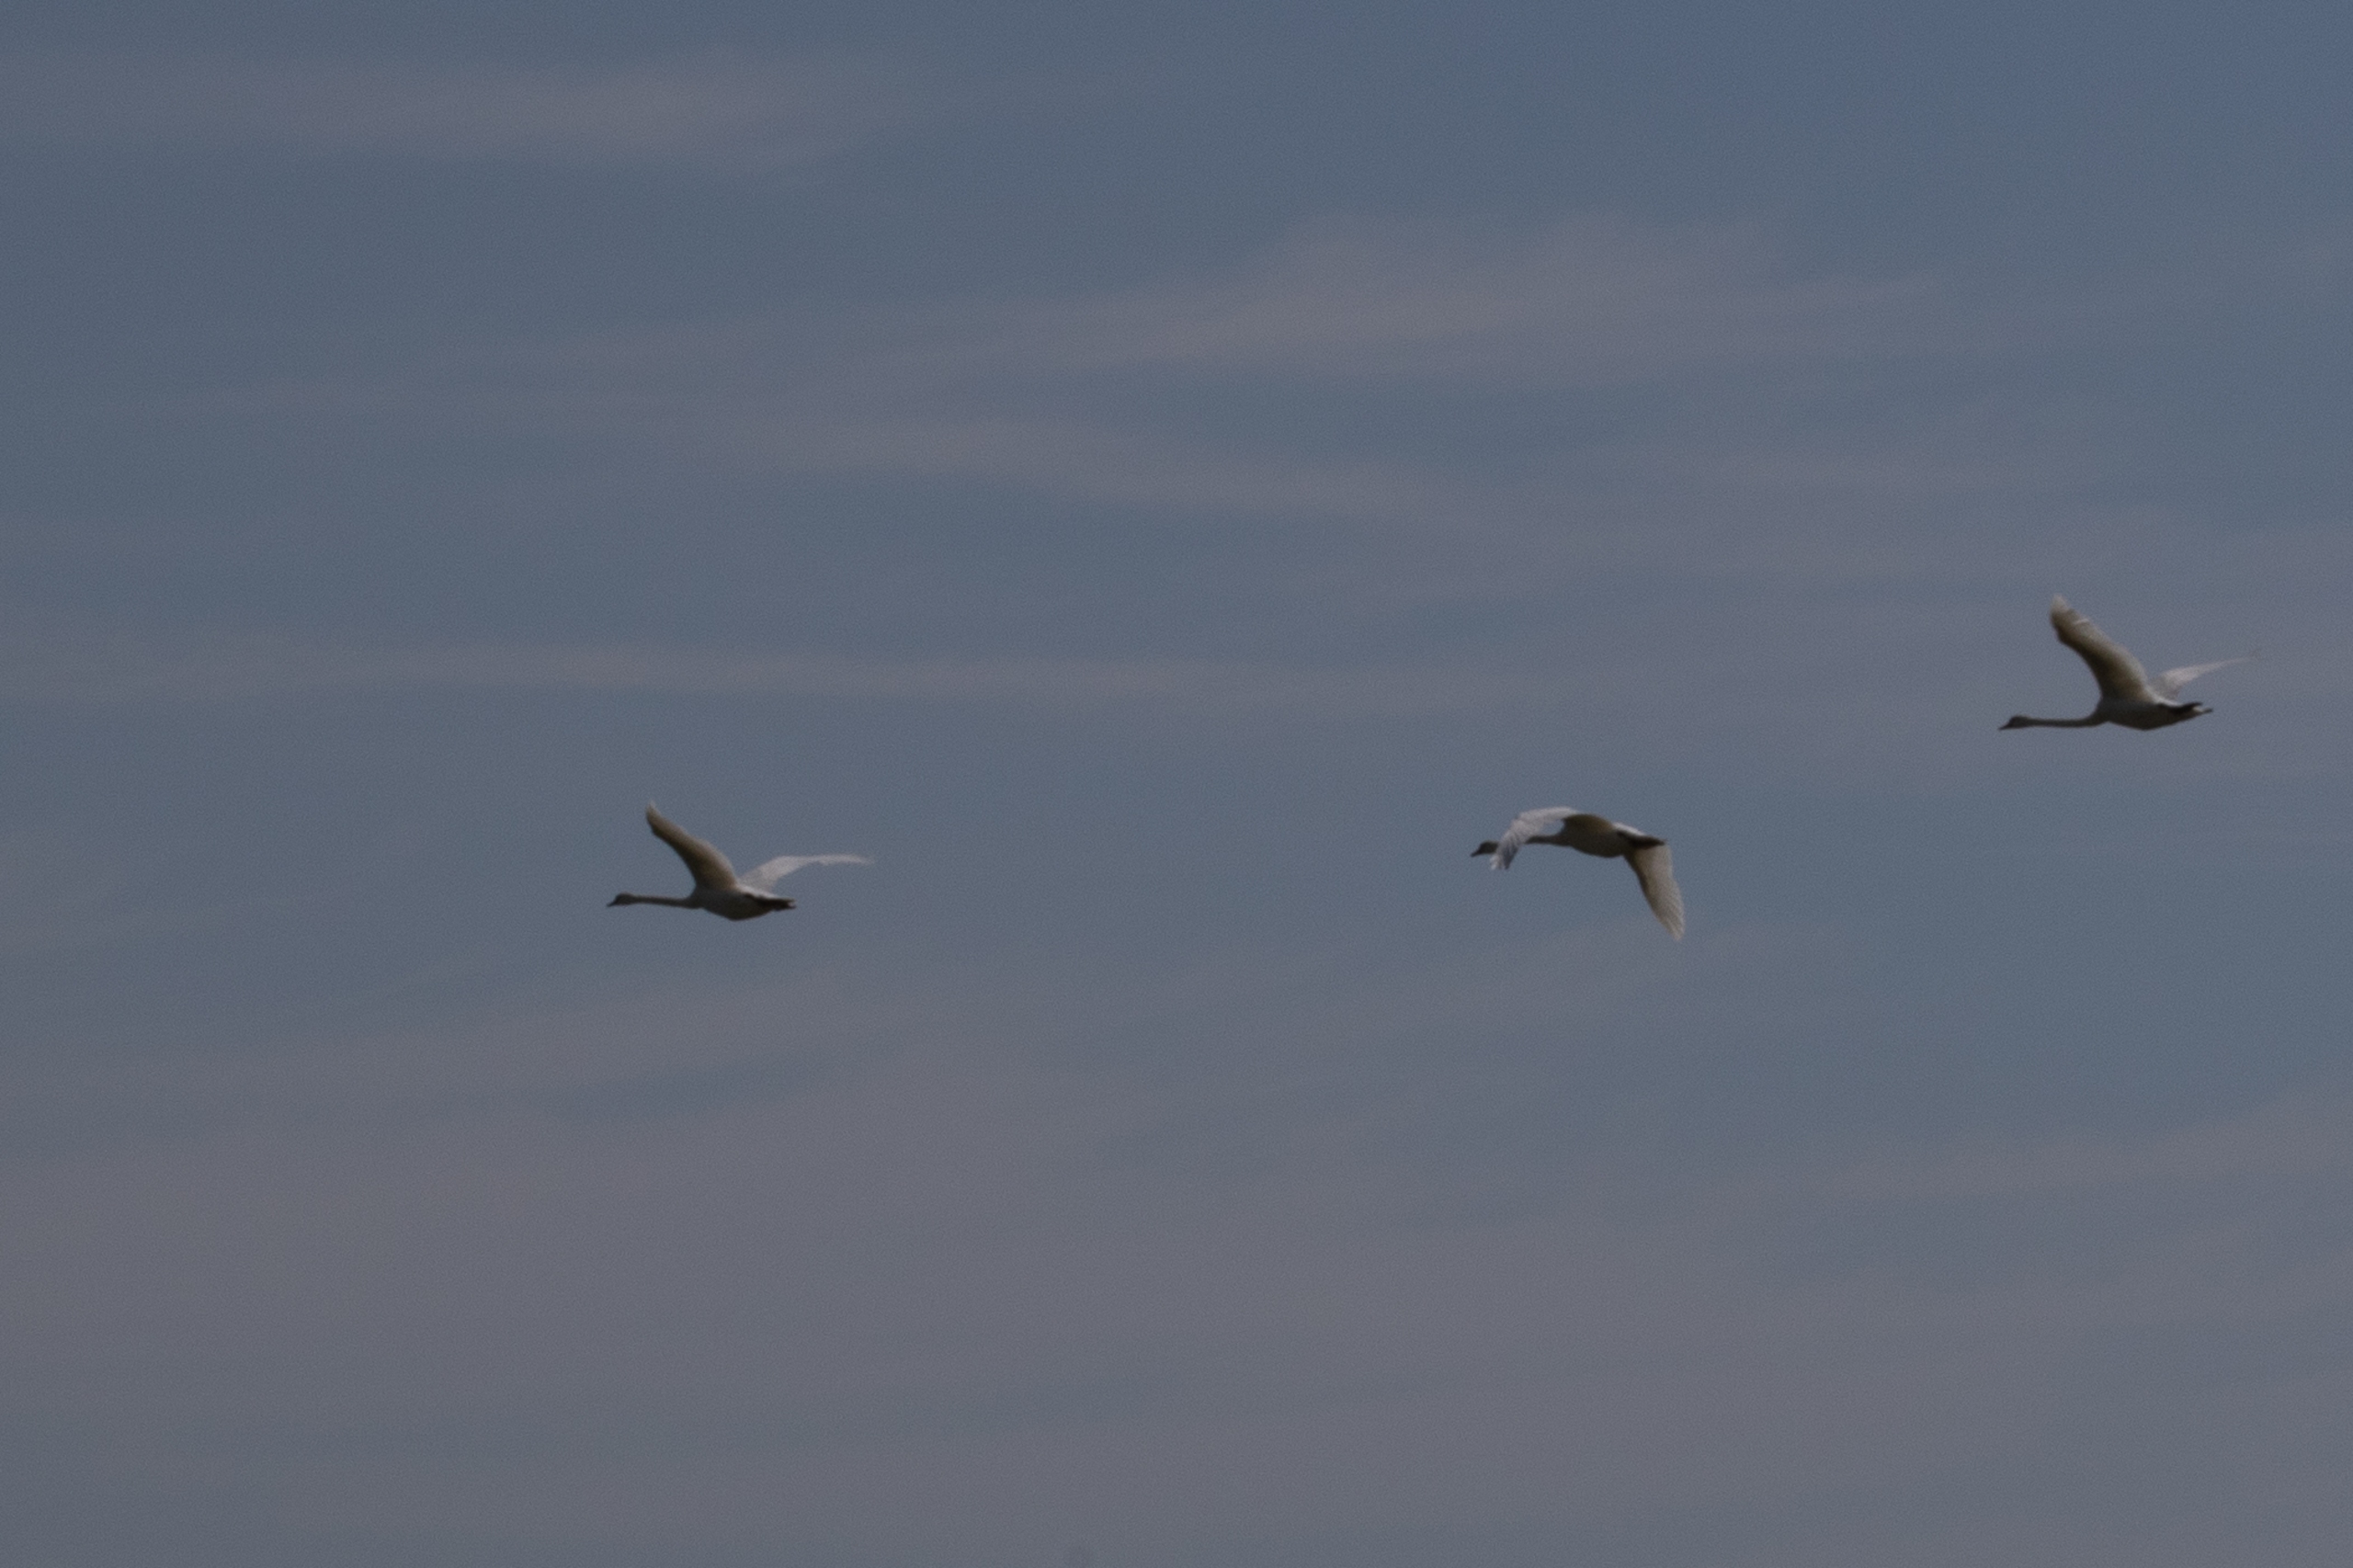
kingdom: Animalia
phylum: Chordata
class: Aves
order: Anseriformes
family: Anatidae
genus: Cygnus
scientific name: Cygnus olor
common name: Knopsvane
